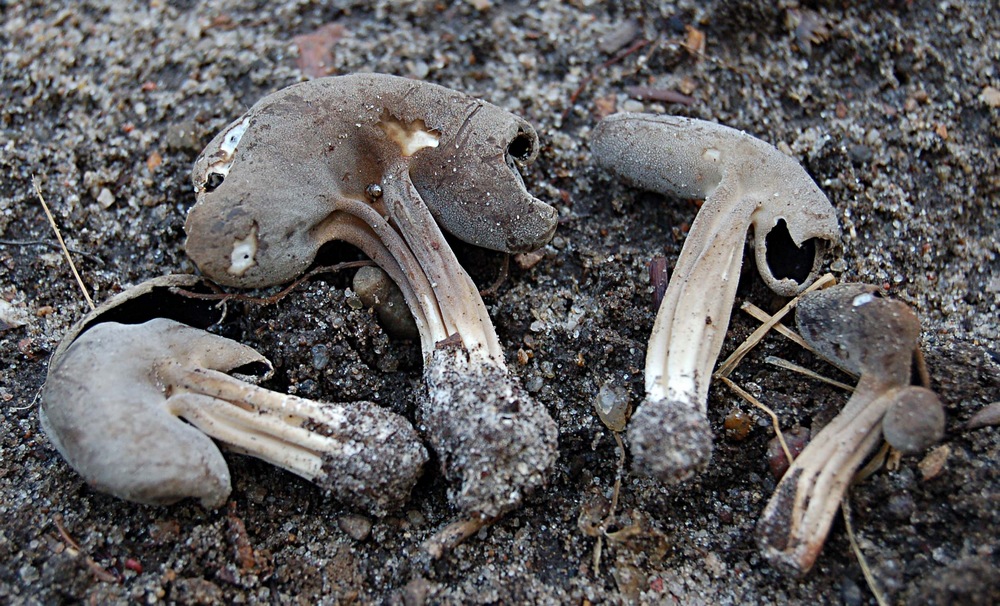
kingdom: Fungi
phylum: Ascomycota
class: Pezizomycetes
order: Pezizales
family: Helvellaceae
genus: Helvella
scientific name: Helvella solitaria
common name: Quélets foldhat
